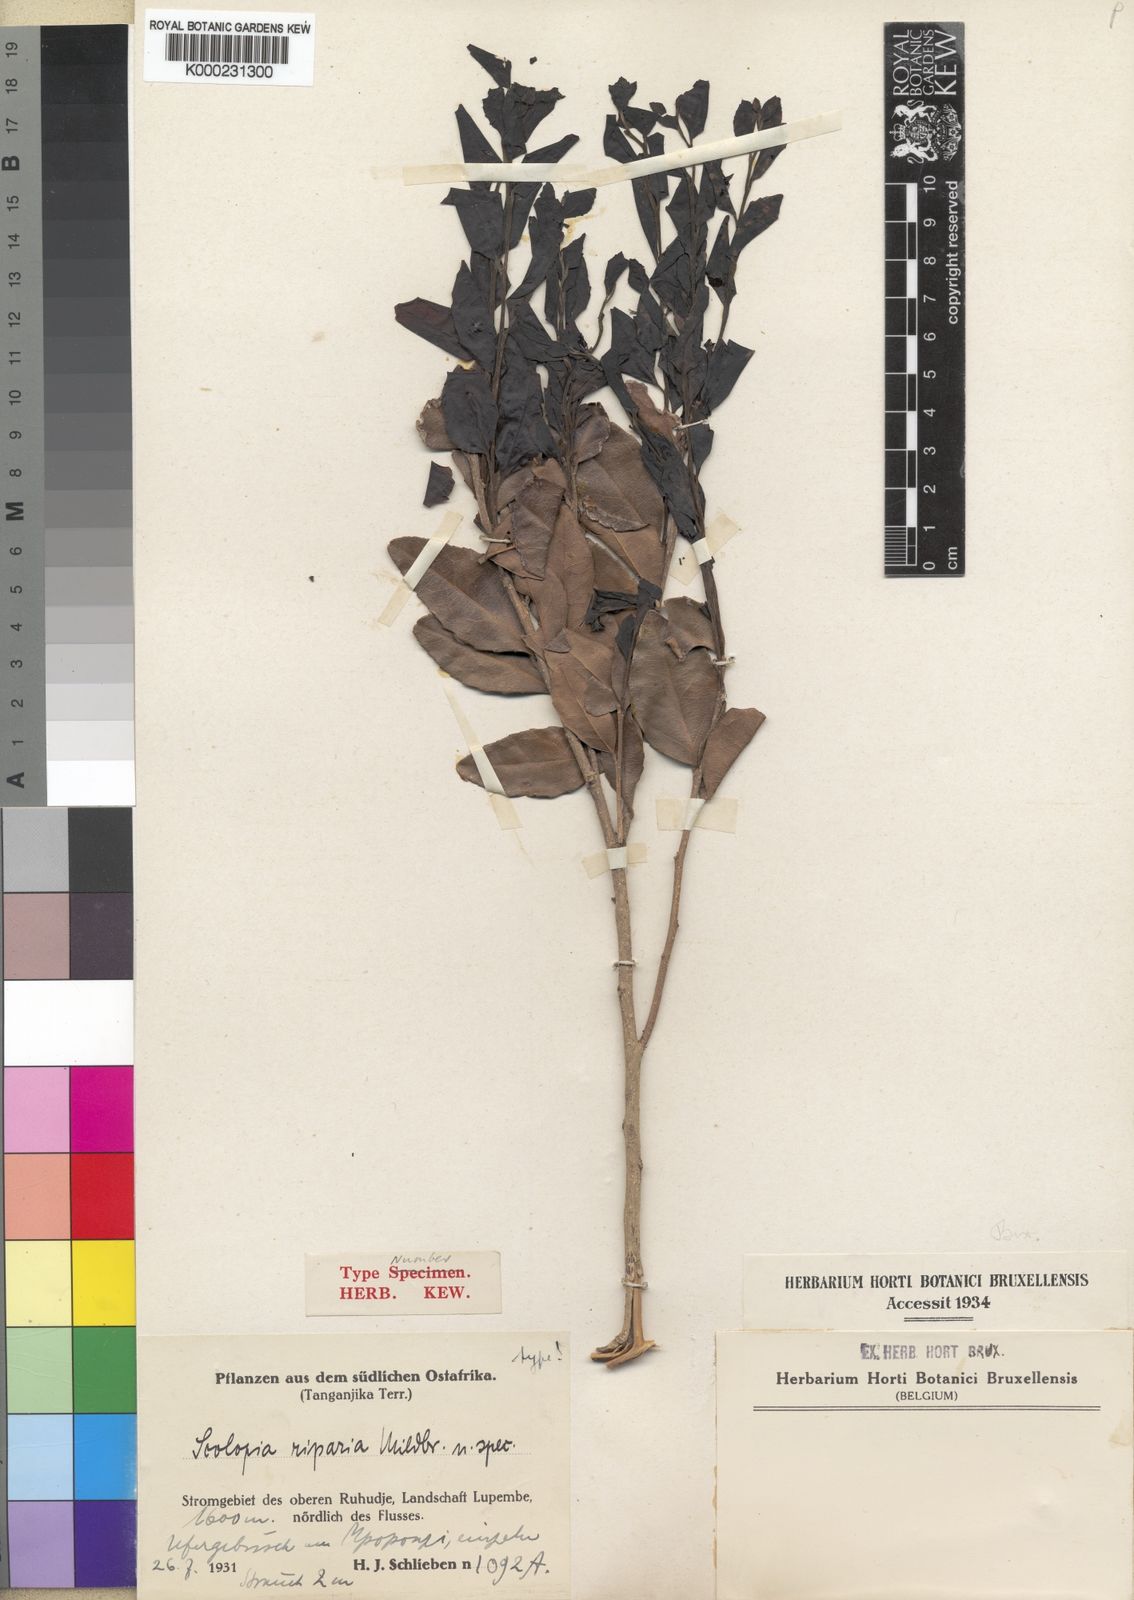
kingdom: Plantae
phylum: Tracheophyta
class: Magnoliopsida
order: Malpighiales
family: Salicaceae
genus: Scolopia
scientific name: Scolopia stolzii
